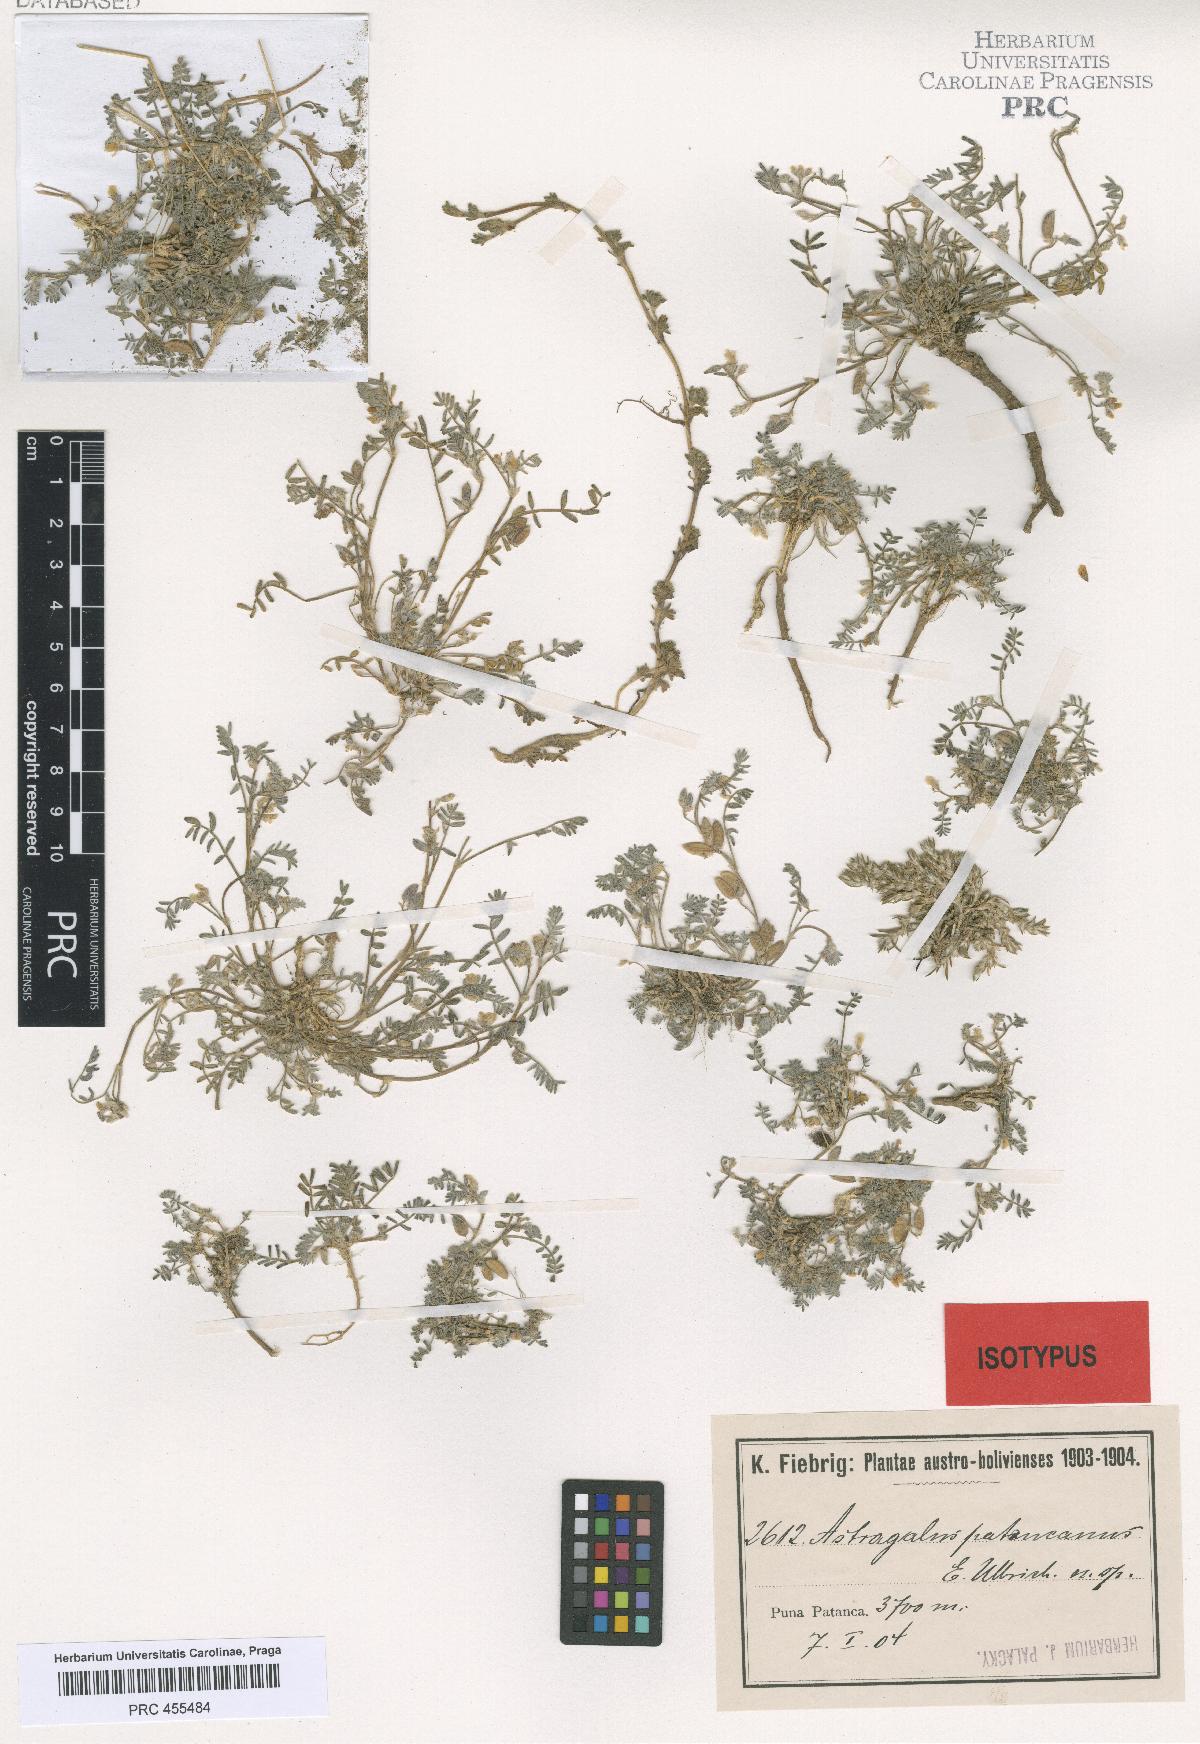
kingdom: Plantae
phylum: Tracheophyta
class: Magnoliopsida
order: Fabales
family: Fabaceae
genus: Astragalus
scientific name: Astragalus micranthellus
